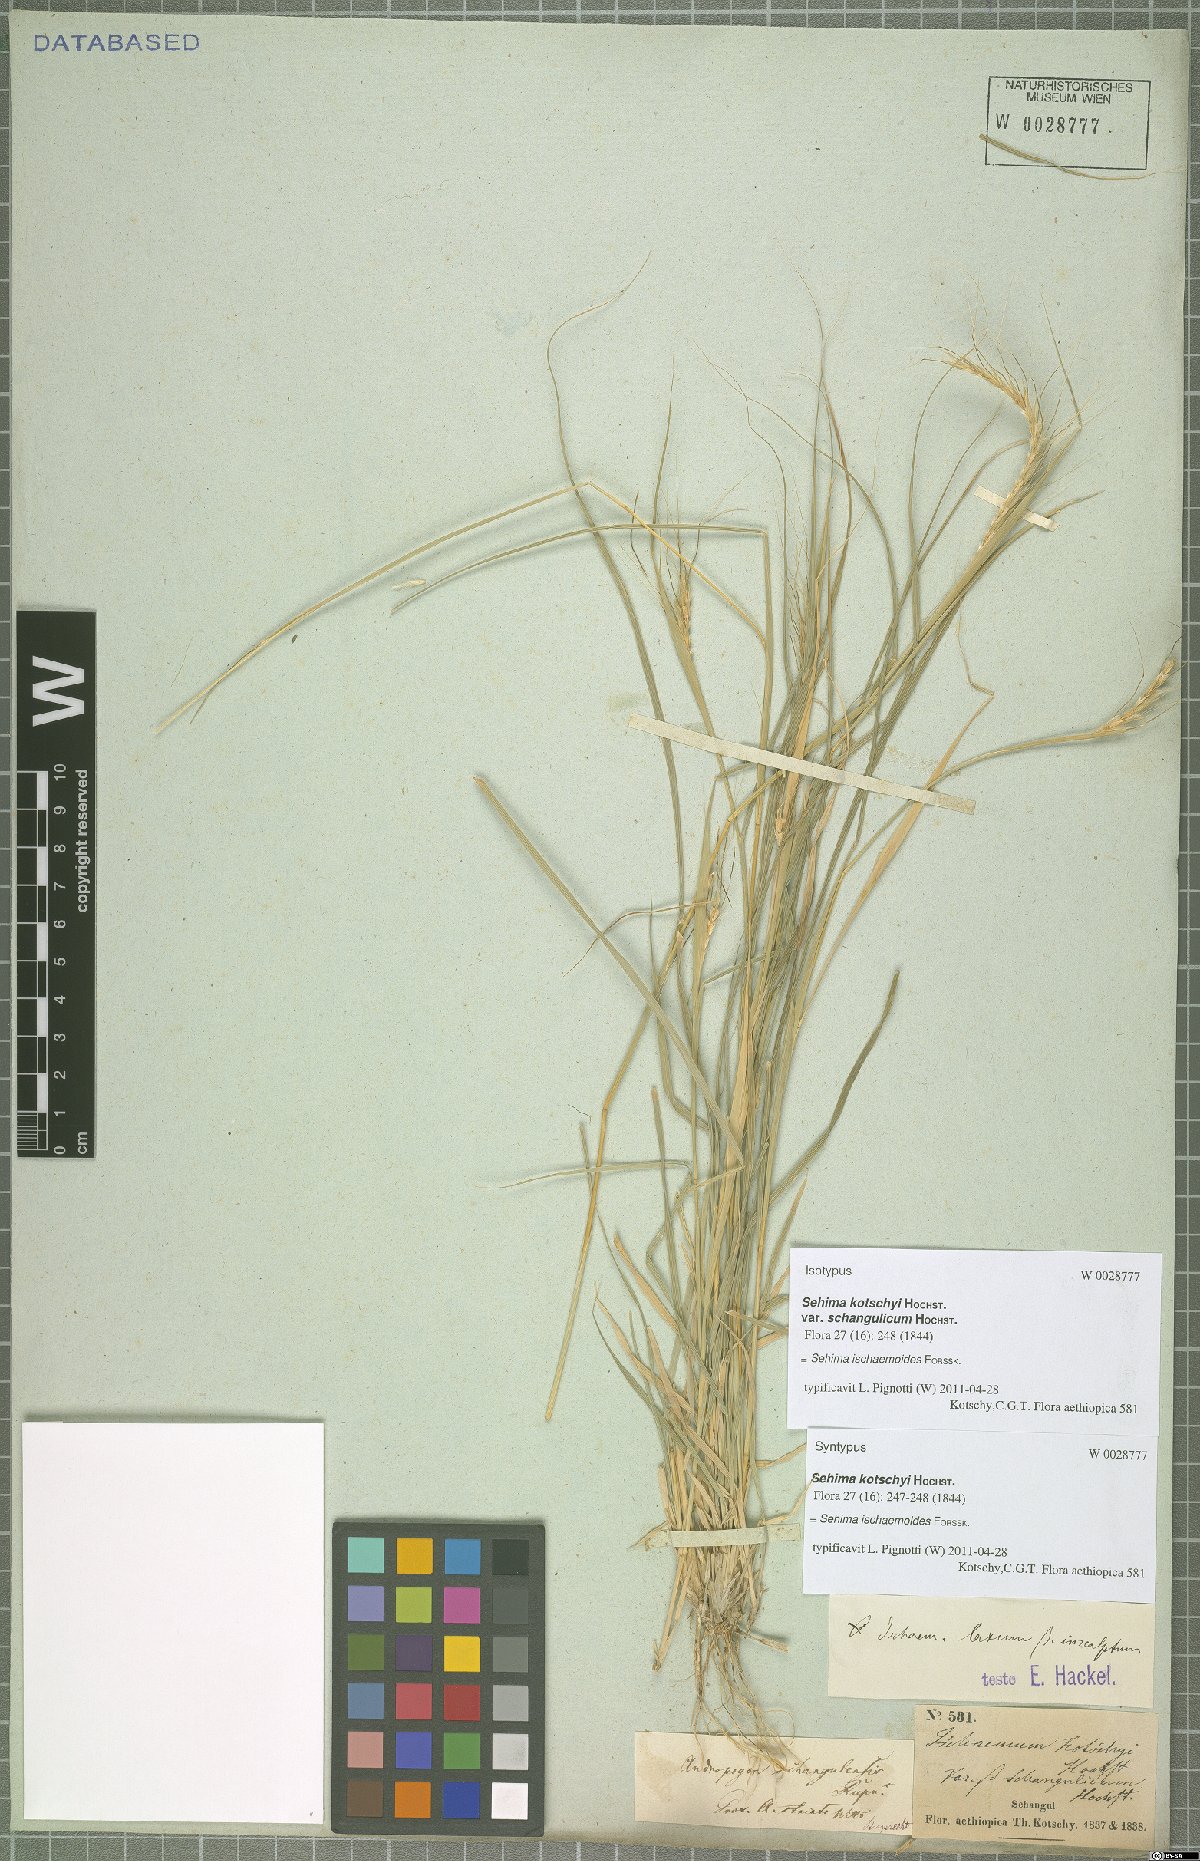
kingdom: Plantae
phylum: Tracheophyta
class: Liliopsida
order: Poales
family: Poaceae
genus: Sehima
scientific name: Sehima ischaemoides
